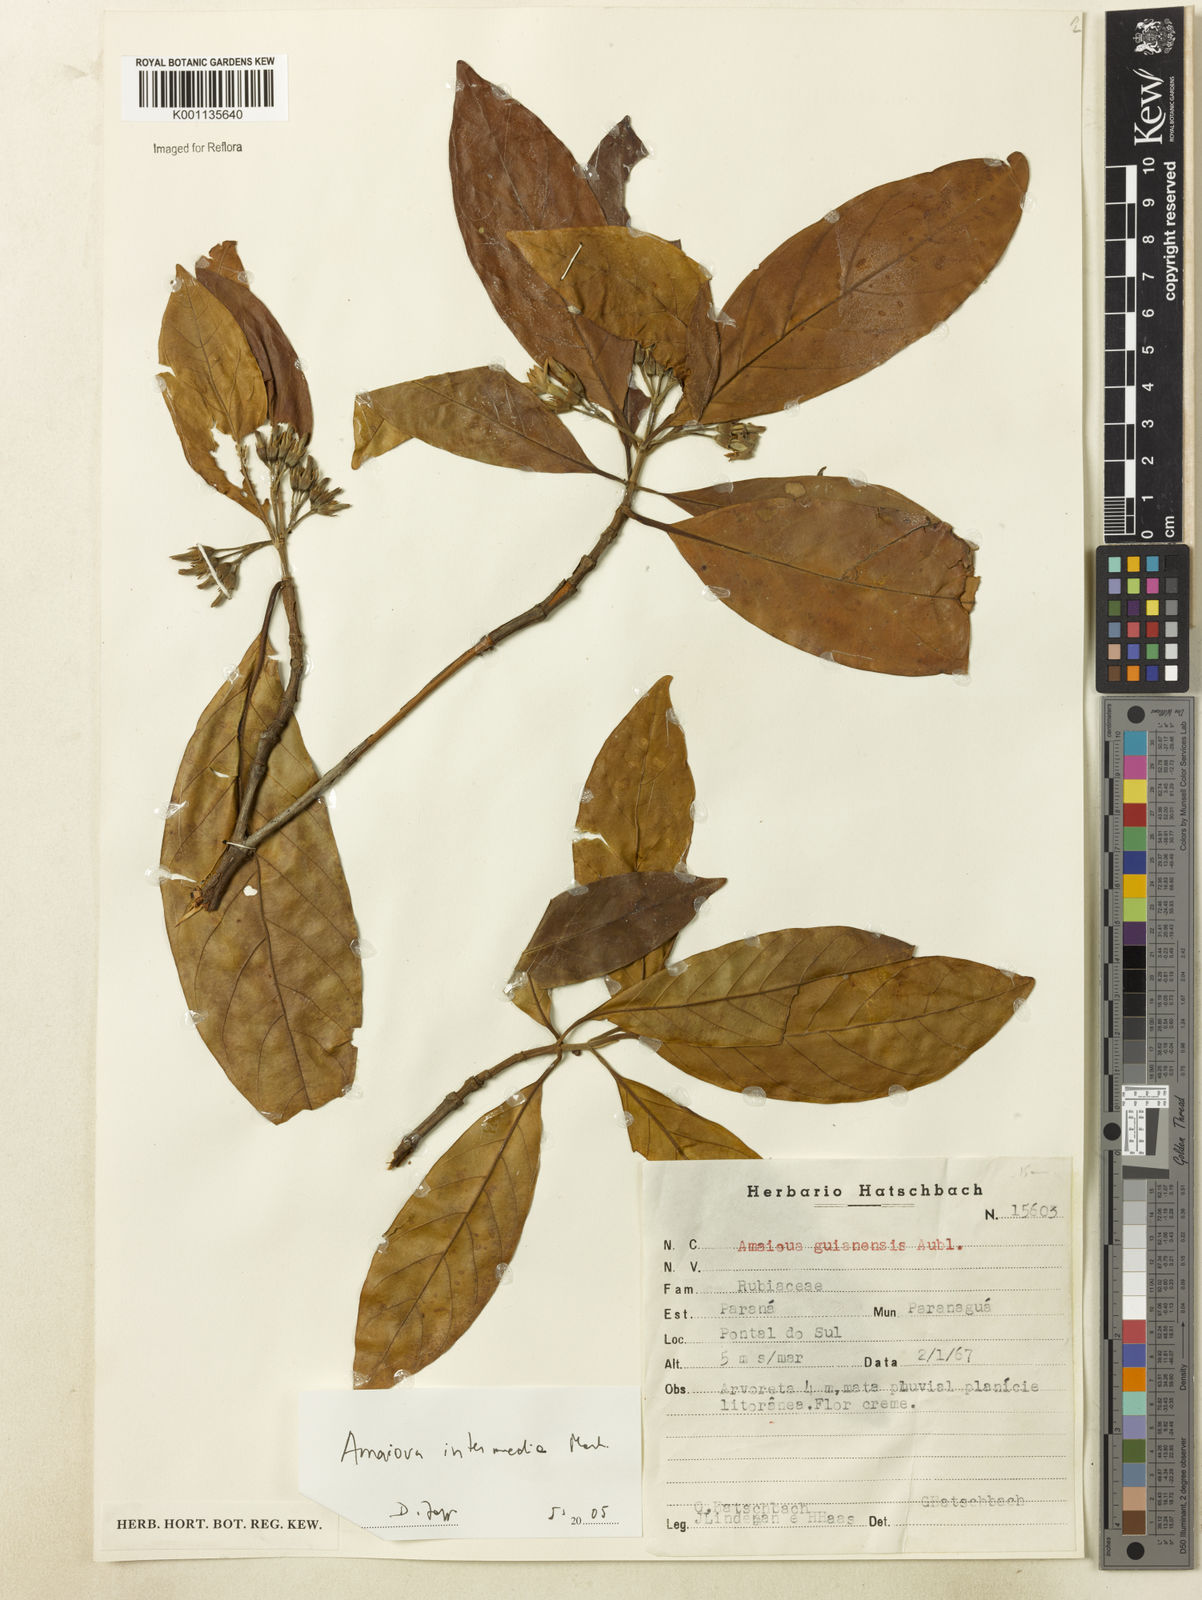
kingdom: Plantae
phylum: Tracheophyta
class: Magnoliopsida
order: Gentianales
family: Rubiaceae
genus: Amaioua
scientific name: Amaioua intermedia
